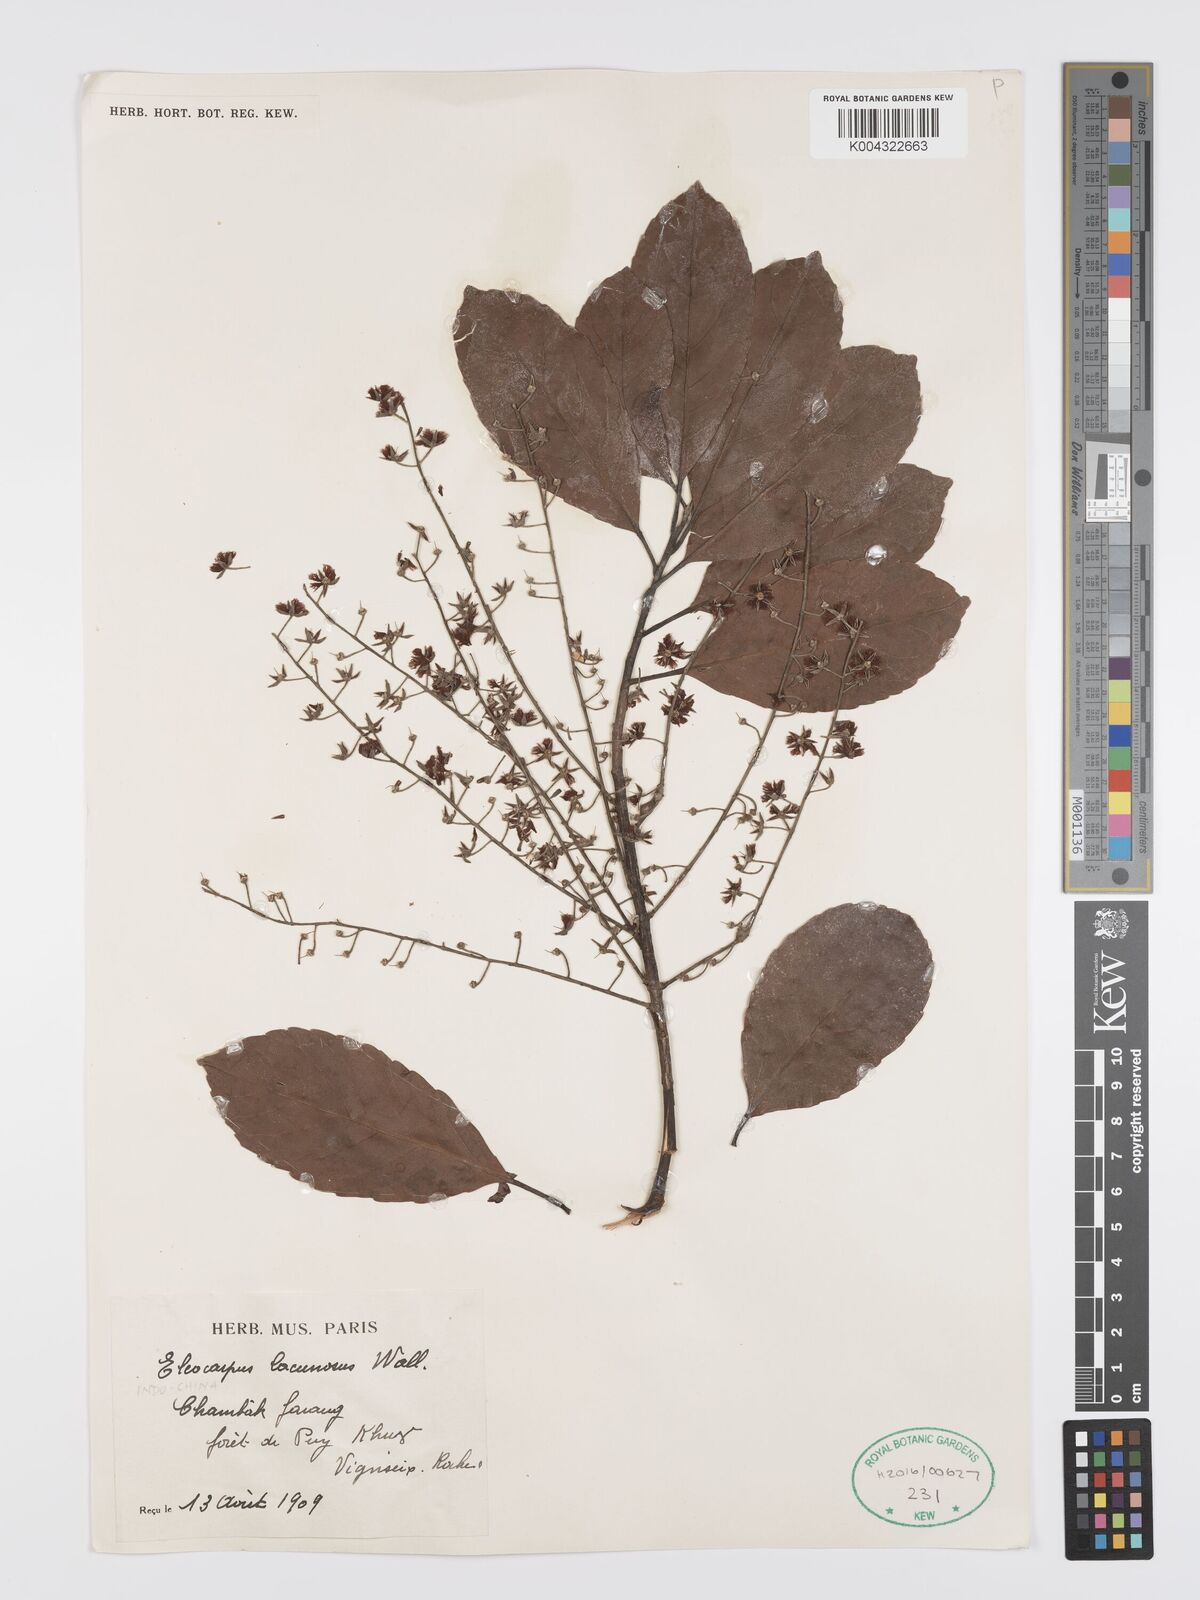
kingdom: Plantae
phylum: Tracheophyta
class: Magnoliopsida
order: Oxalidales
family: Elaeocarpaceae
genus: Elaeocarpus
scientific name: Elaeocarpus lanceifolius
